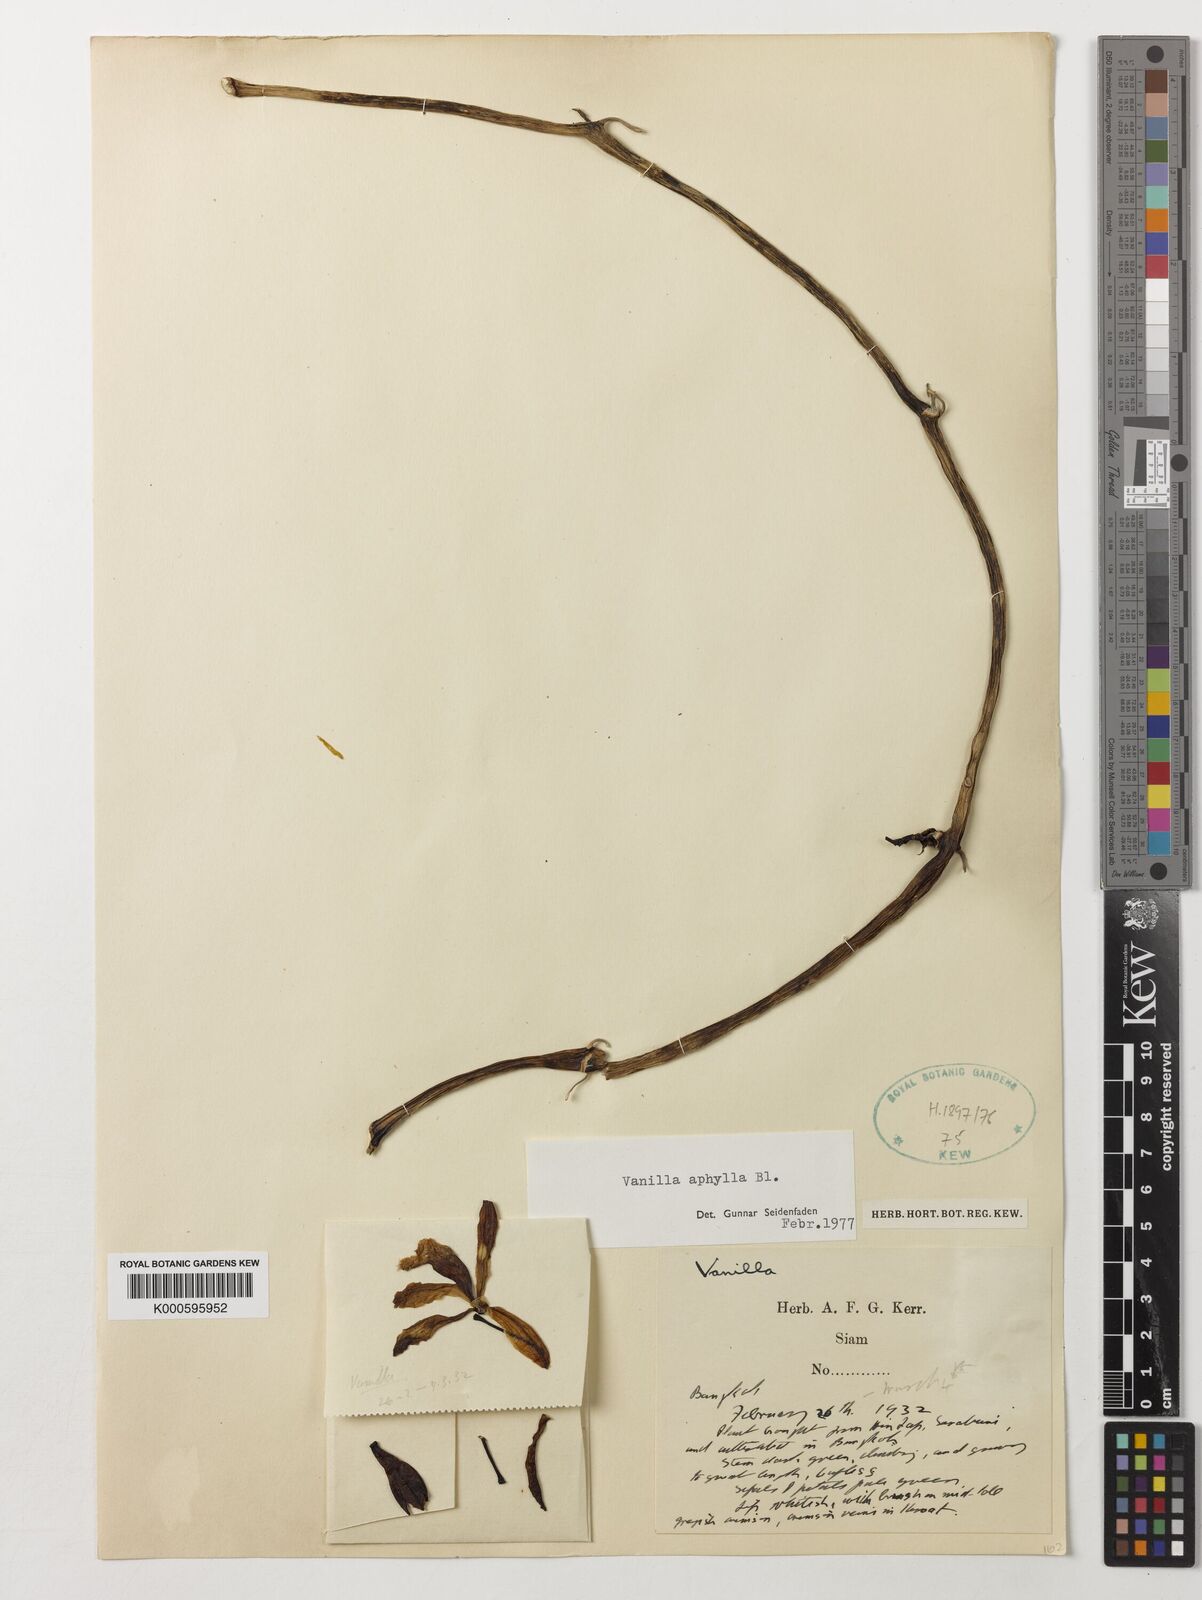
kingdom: Plantae
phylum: Tracheophyta
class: Liliopsida
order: Asparagales
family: Orchidaceae
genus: Vanilla
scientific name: Vanilla aphylla
